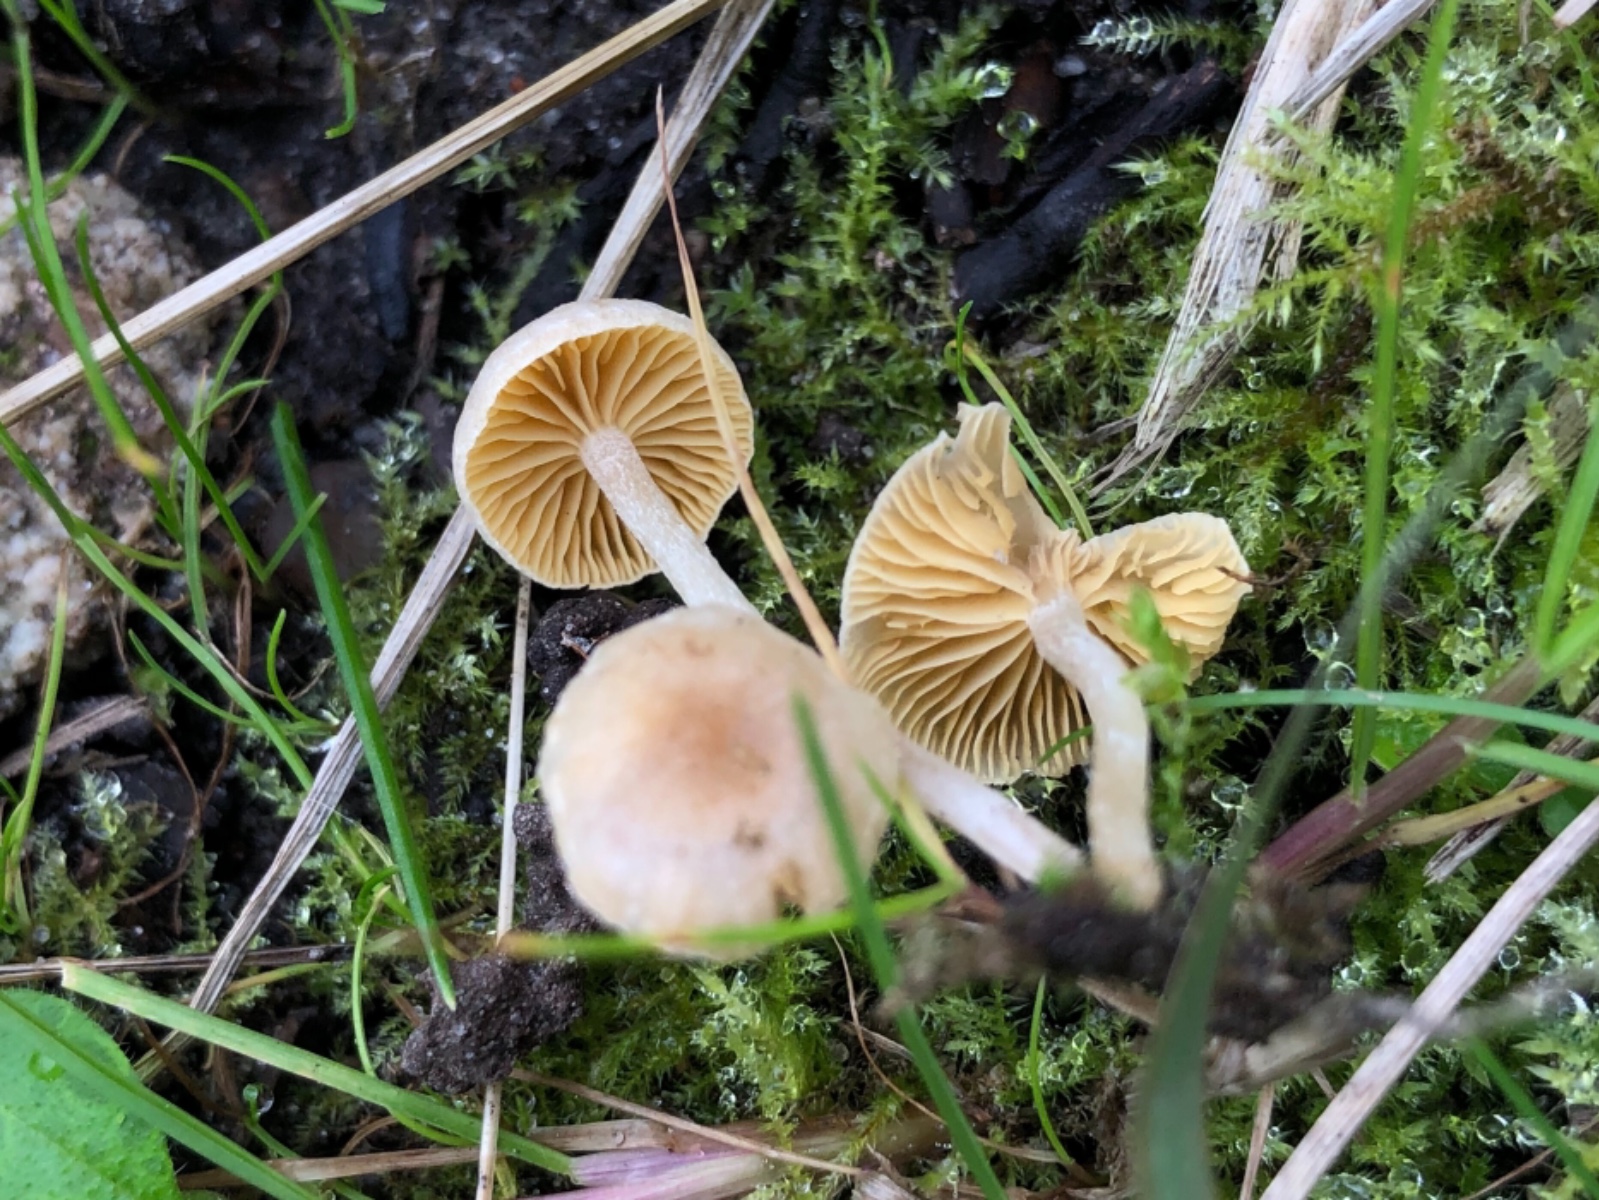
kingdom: Fungi
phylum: Basidiomycota
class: Agaricomycetes
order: Agaricales
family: Tubariaceae
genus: Tubaria
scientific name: Tubaria dispersa
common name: tjørne-fnughat
